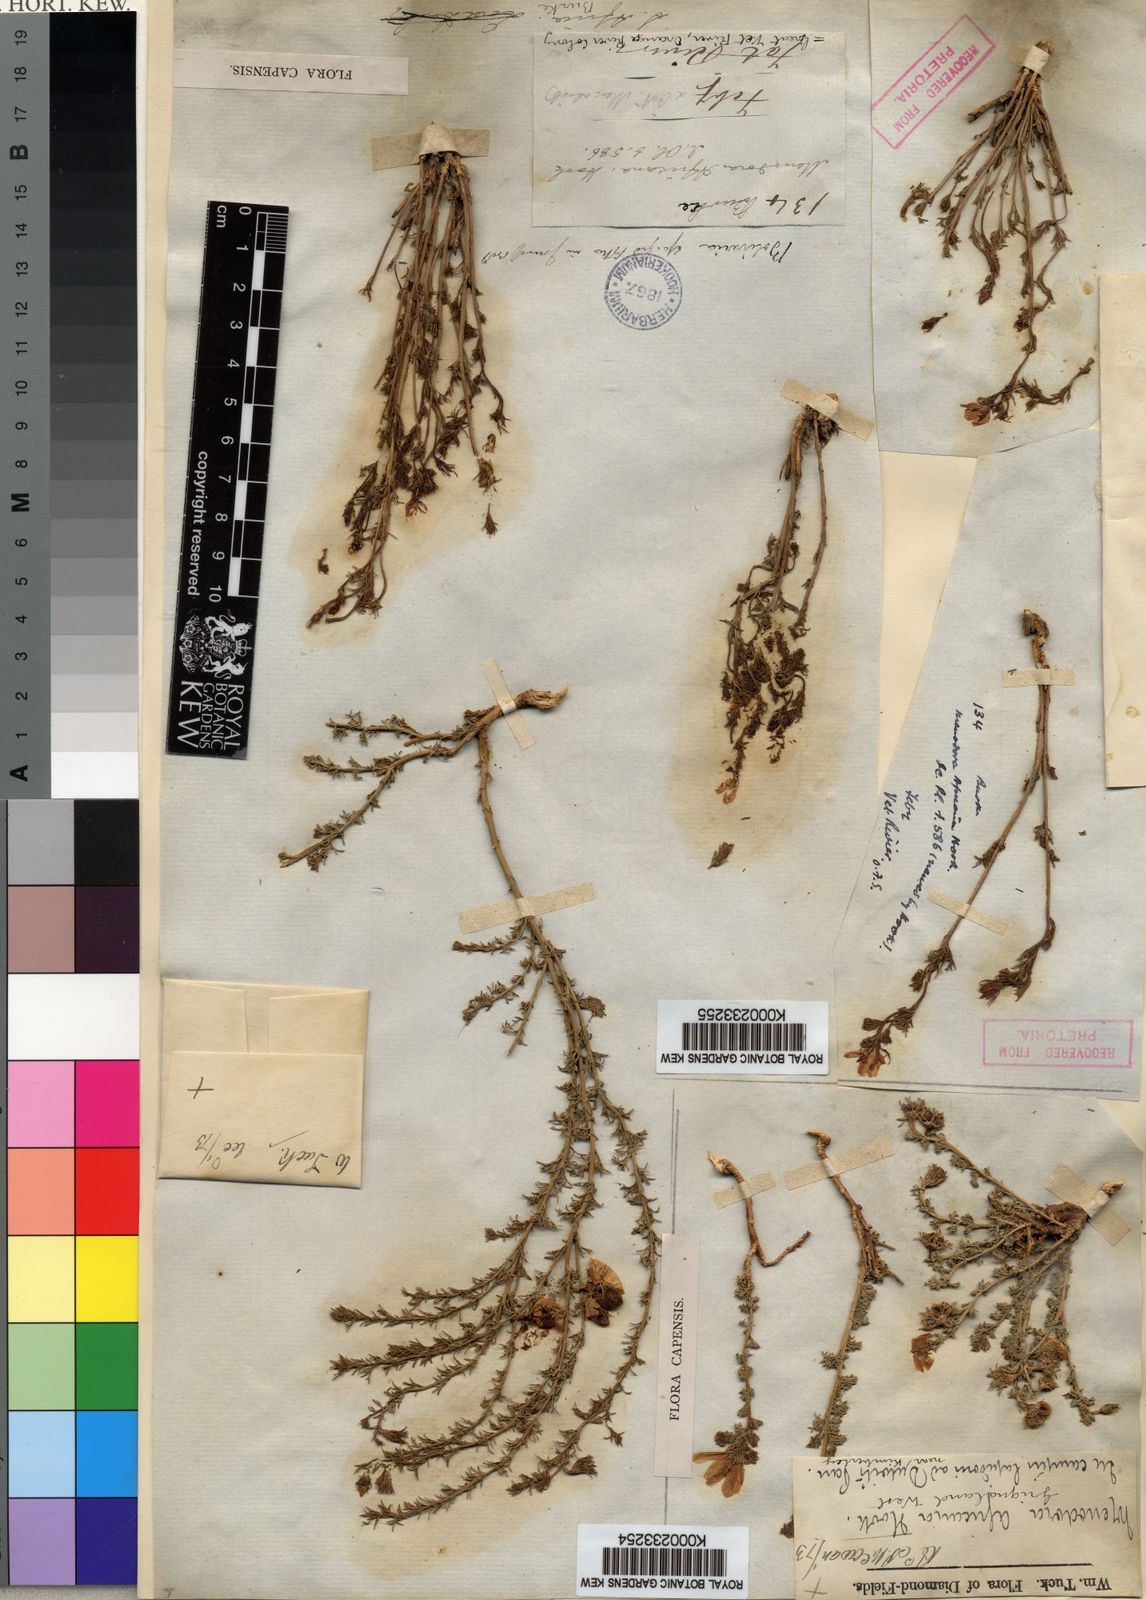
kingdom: Plantae
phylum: Tracheophyta
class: Magnoliopsida
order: Lamiales
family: Oleaceae
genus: Menodora
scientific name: Menodora africana
